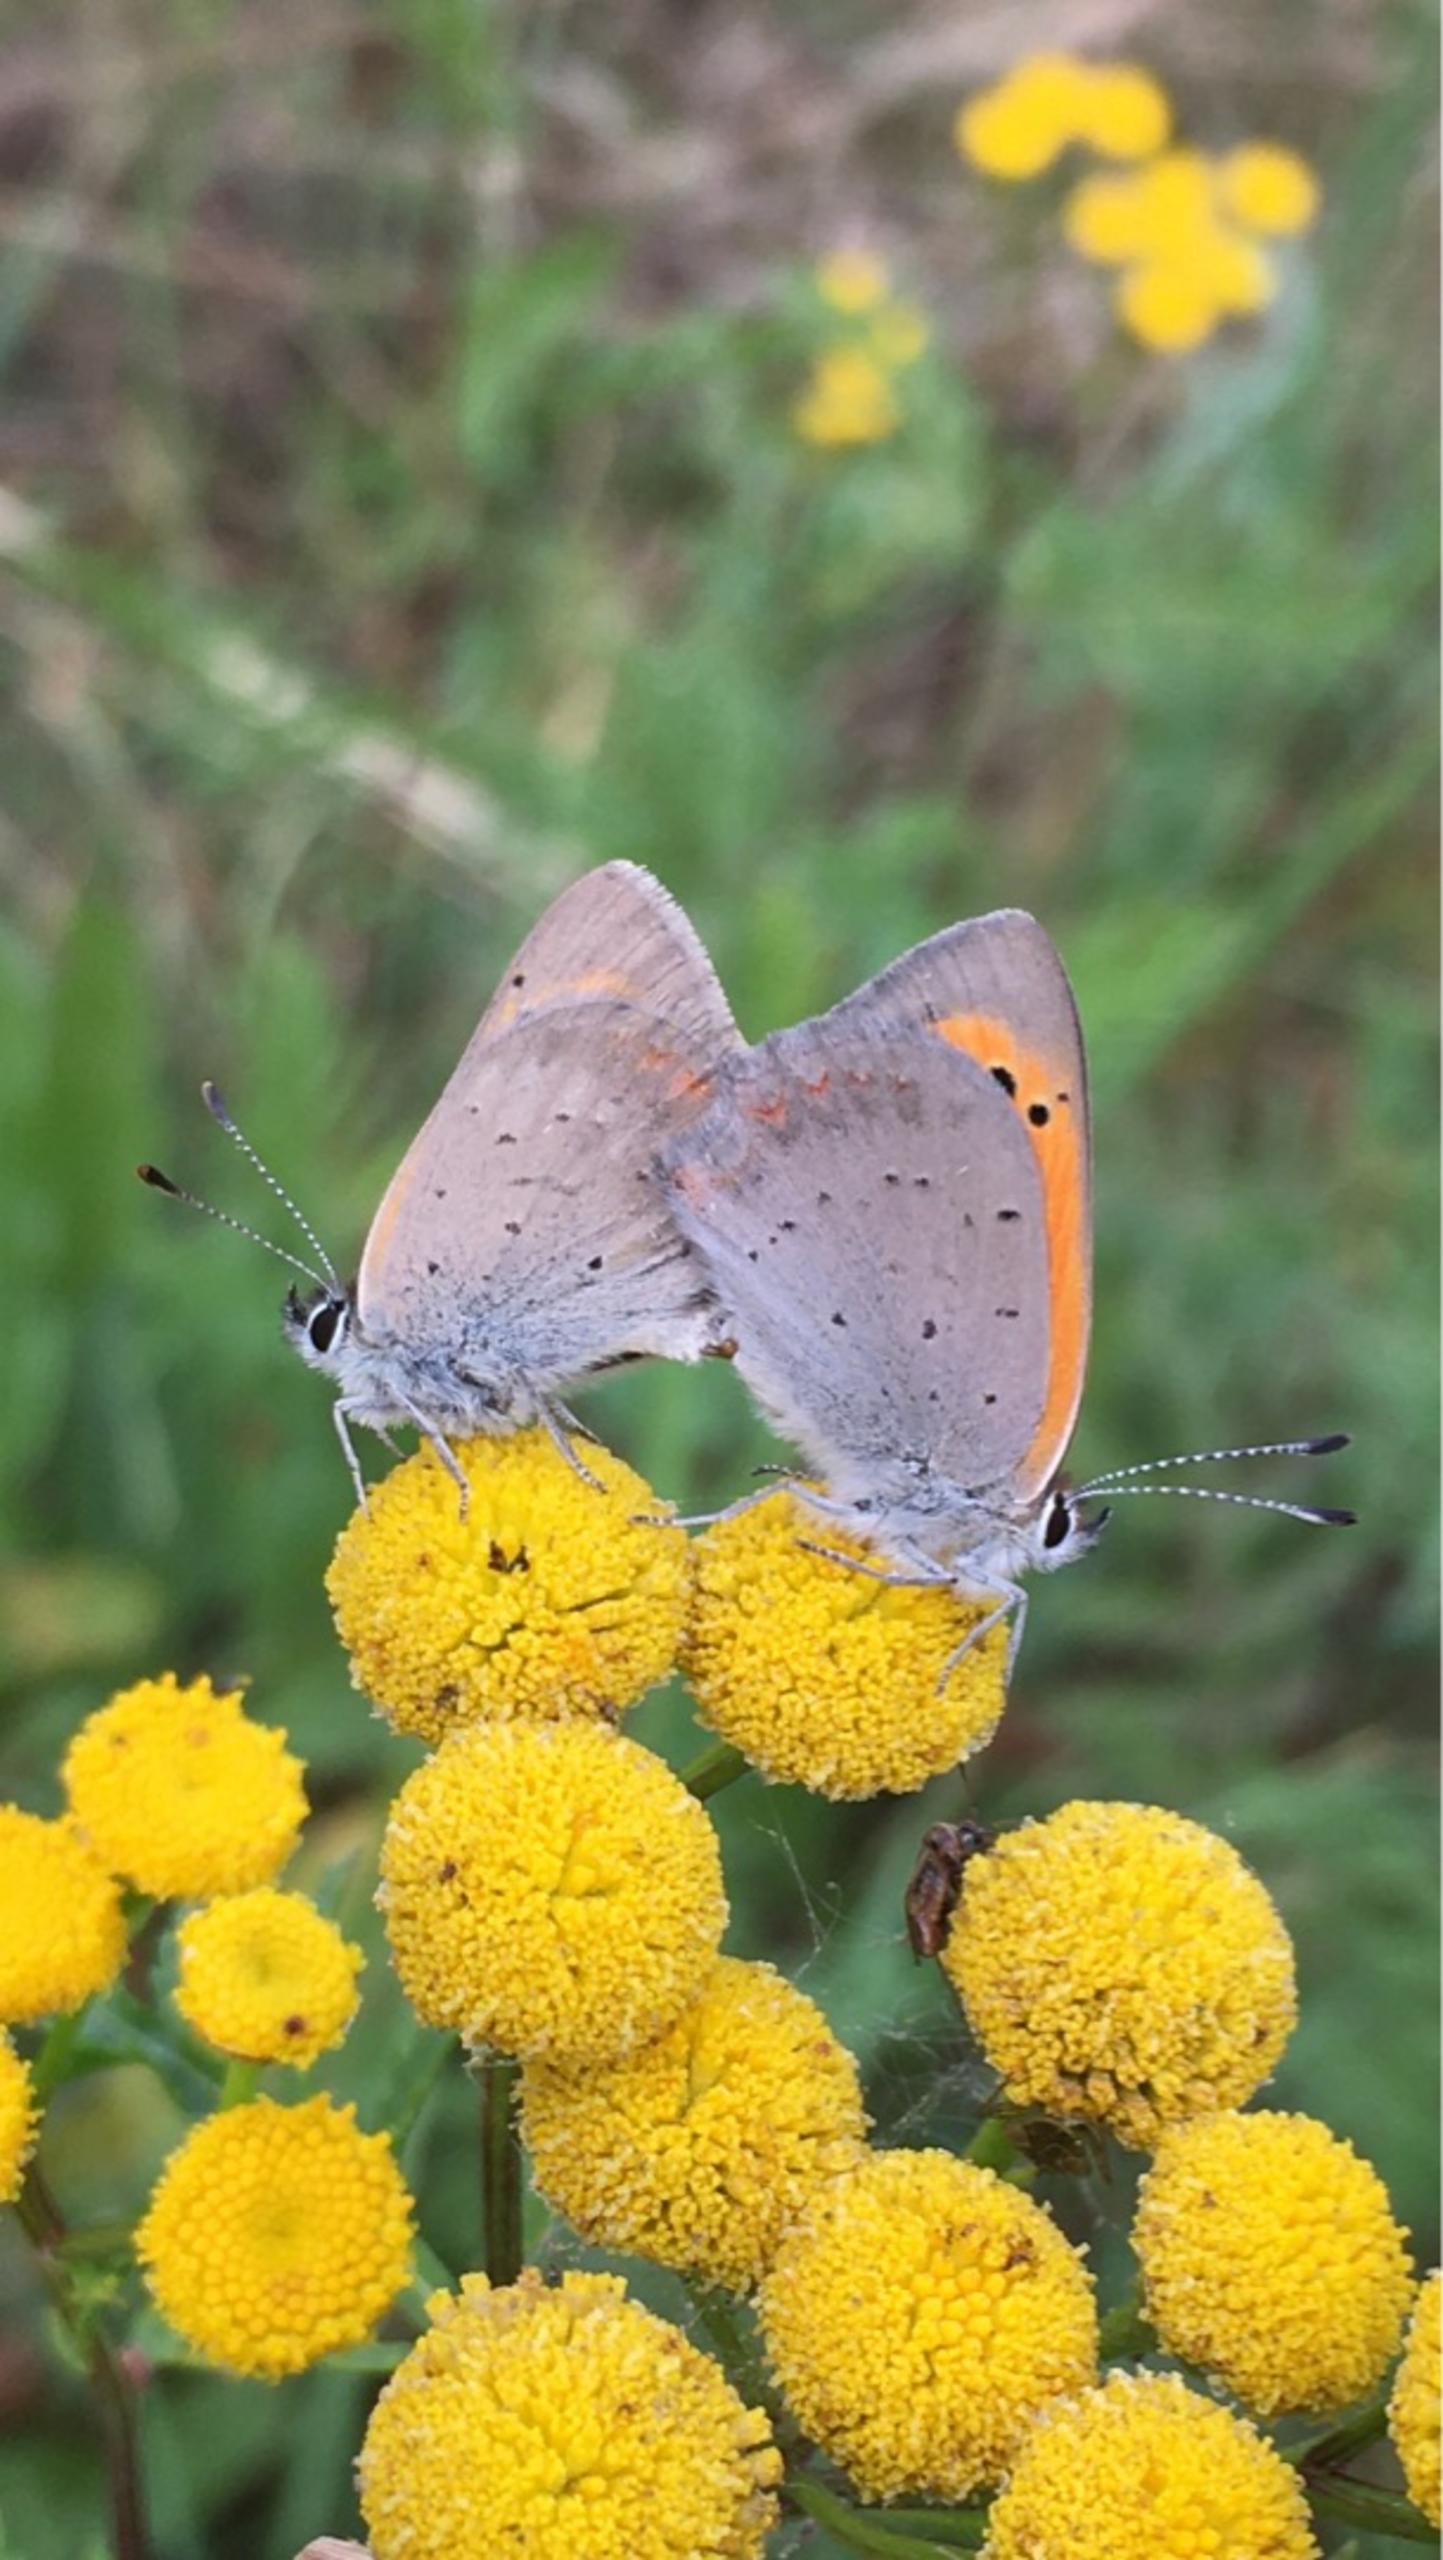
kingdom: Animalia
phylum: Arthropoda
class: Insecta
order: Lepidoptera
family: Lycaenidae
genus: Lycaena
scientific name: Lycaena phlaeas
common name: Lille ildfugl
